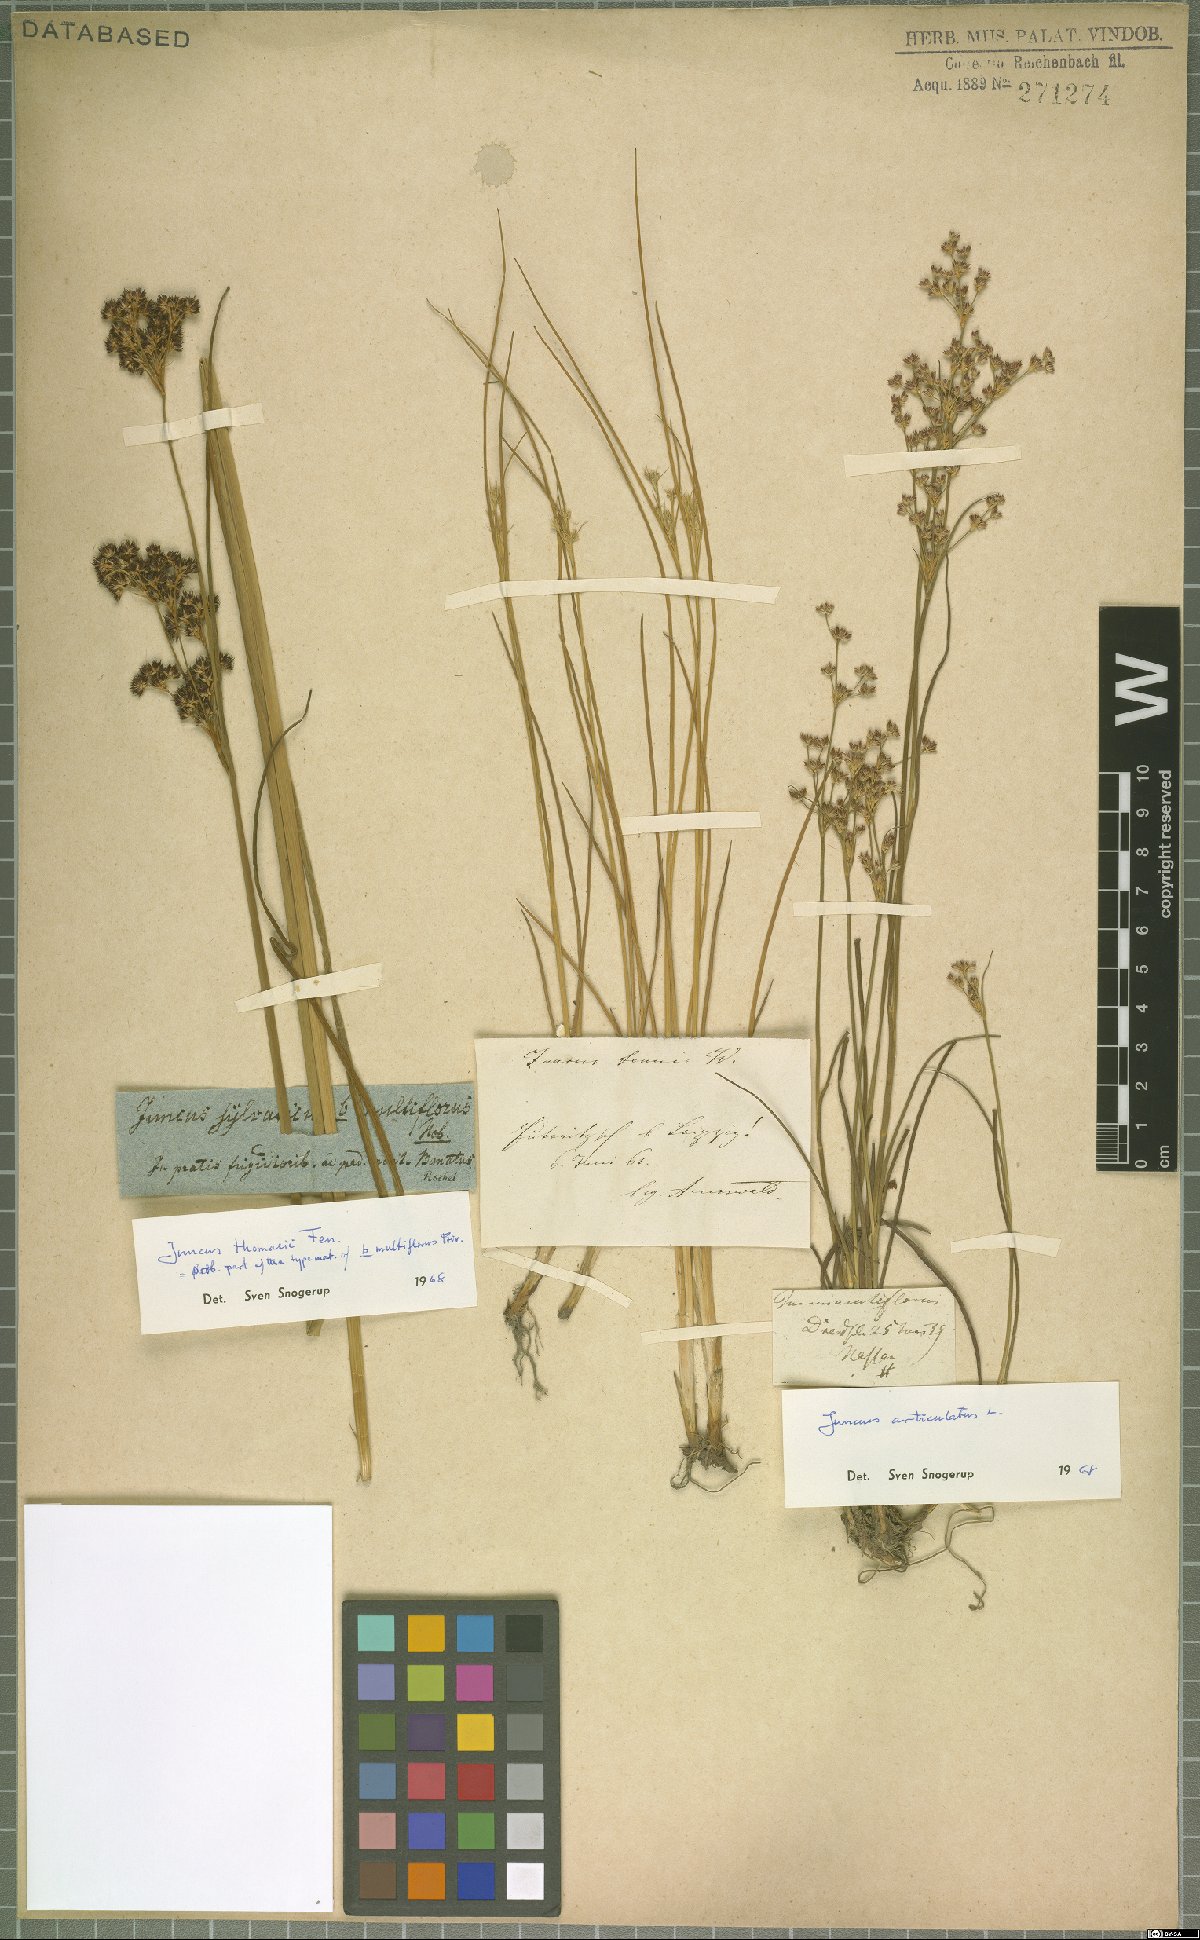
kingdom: Plantae
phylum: Tracheophyta
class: Liliopsida
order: Poales
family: Juncaceae
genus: Juncus
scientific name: Juncus thomasii
